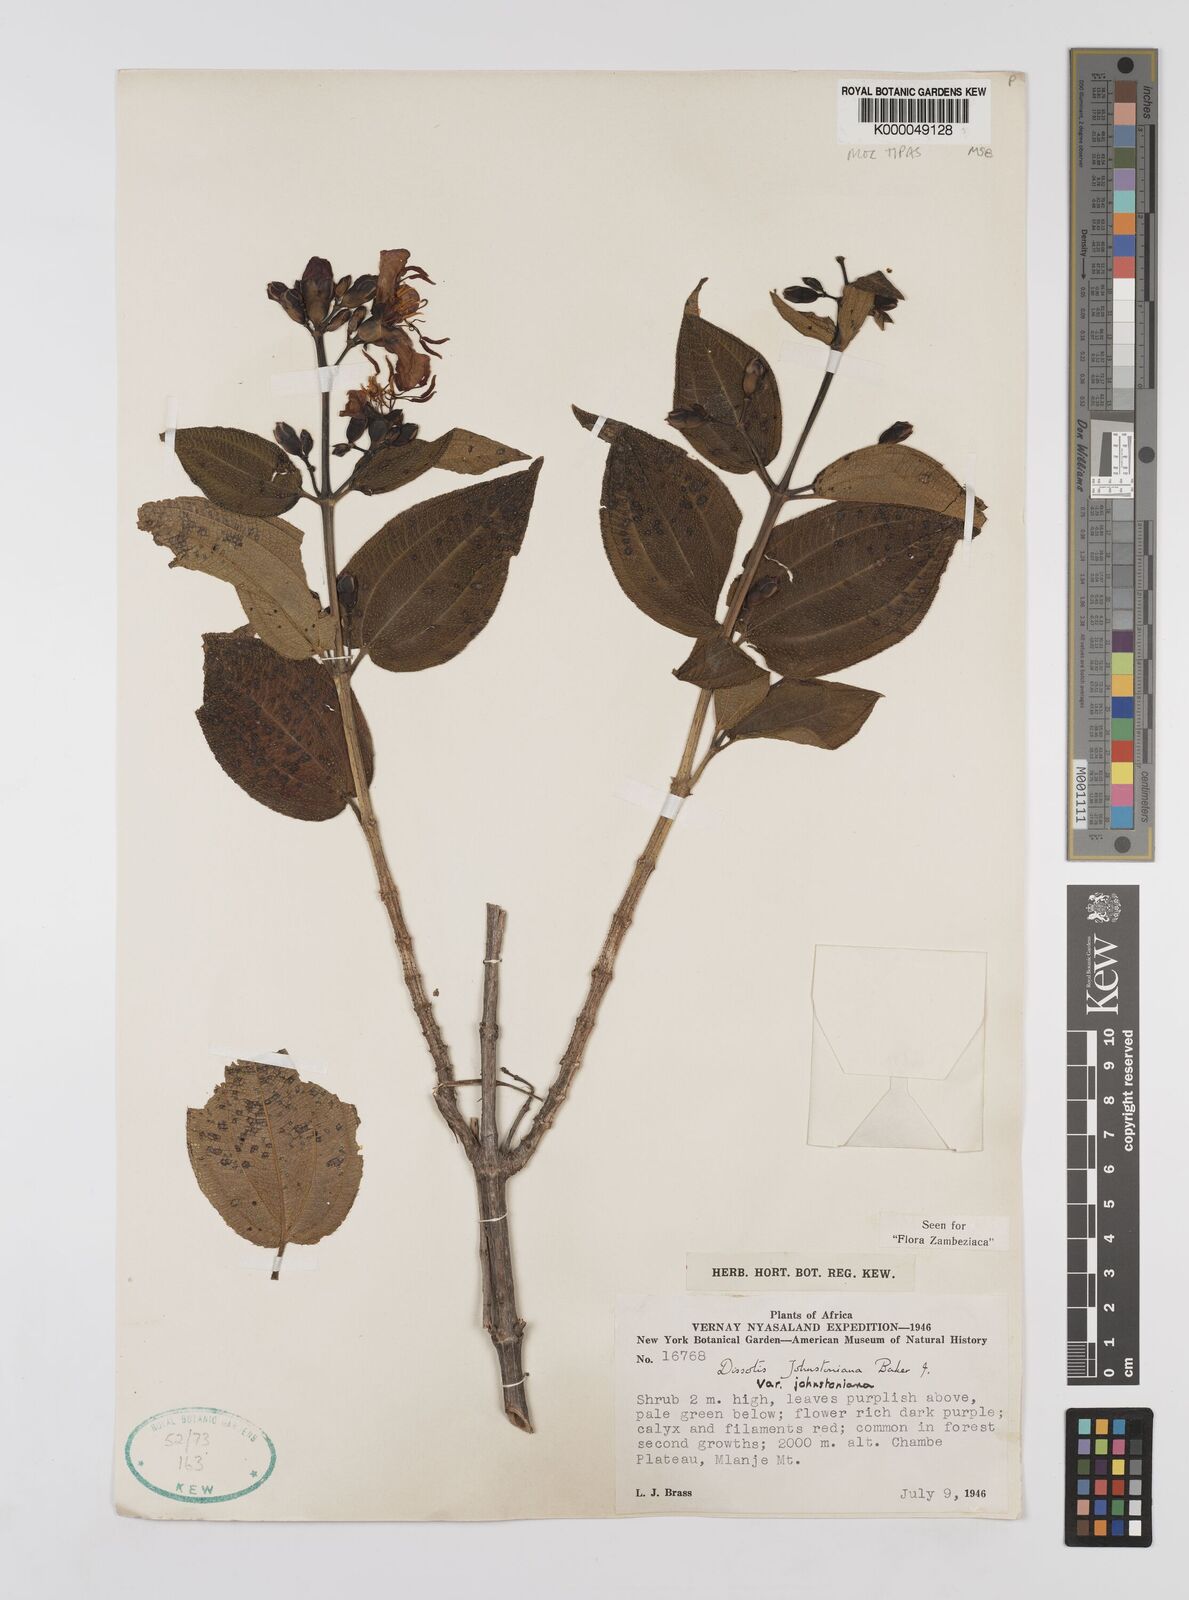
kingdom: Plantae
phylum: Tracheophyta
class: Magnoliopsida
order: Myrtales
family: Melastomataceae
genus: Dissotidendron
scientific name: Dissotidendron johnstonianum
